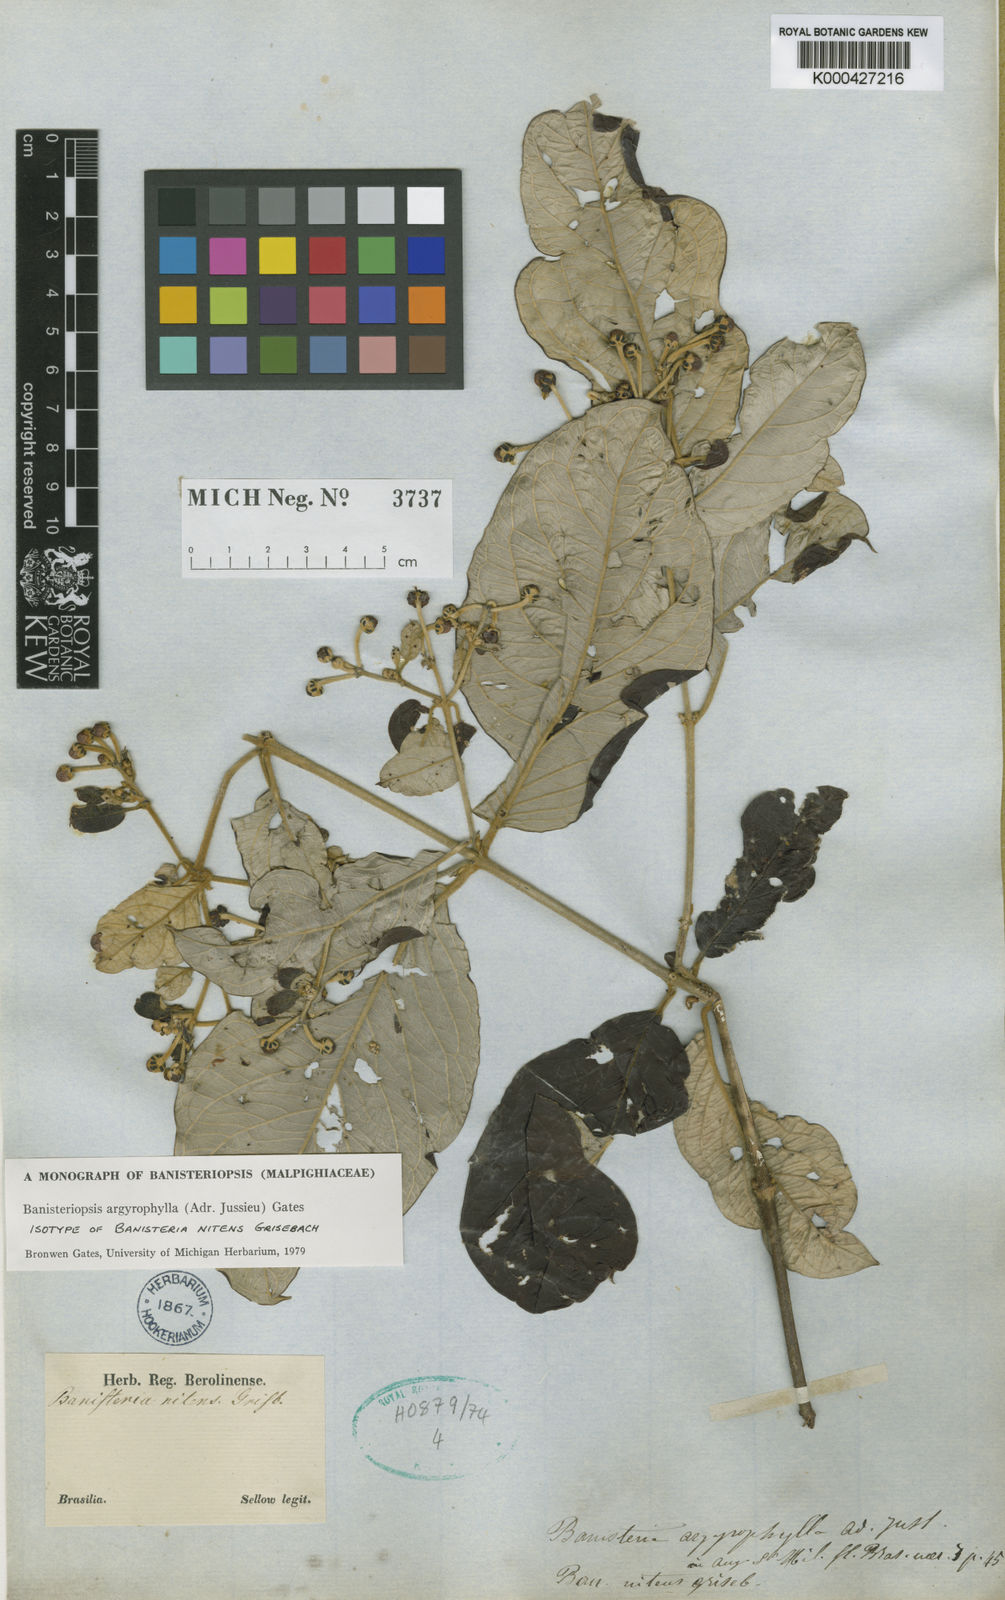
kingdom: Plantae
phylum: Tracheophyta
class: Magnoliopsida
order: Malpighiales
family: Malpighiaceae
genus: Banisteriopsis
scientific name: Banisteriopsis argyrophylla
